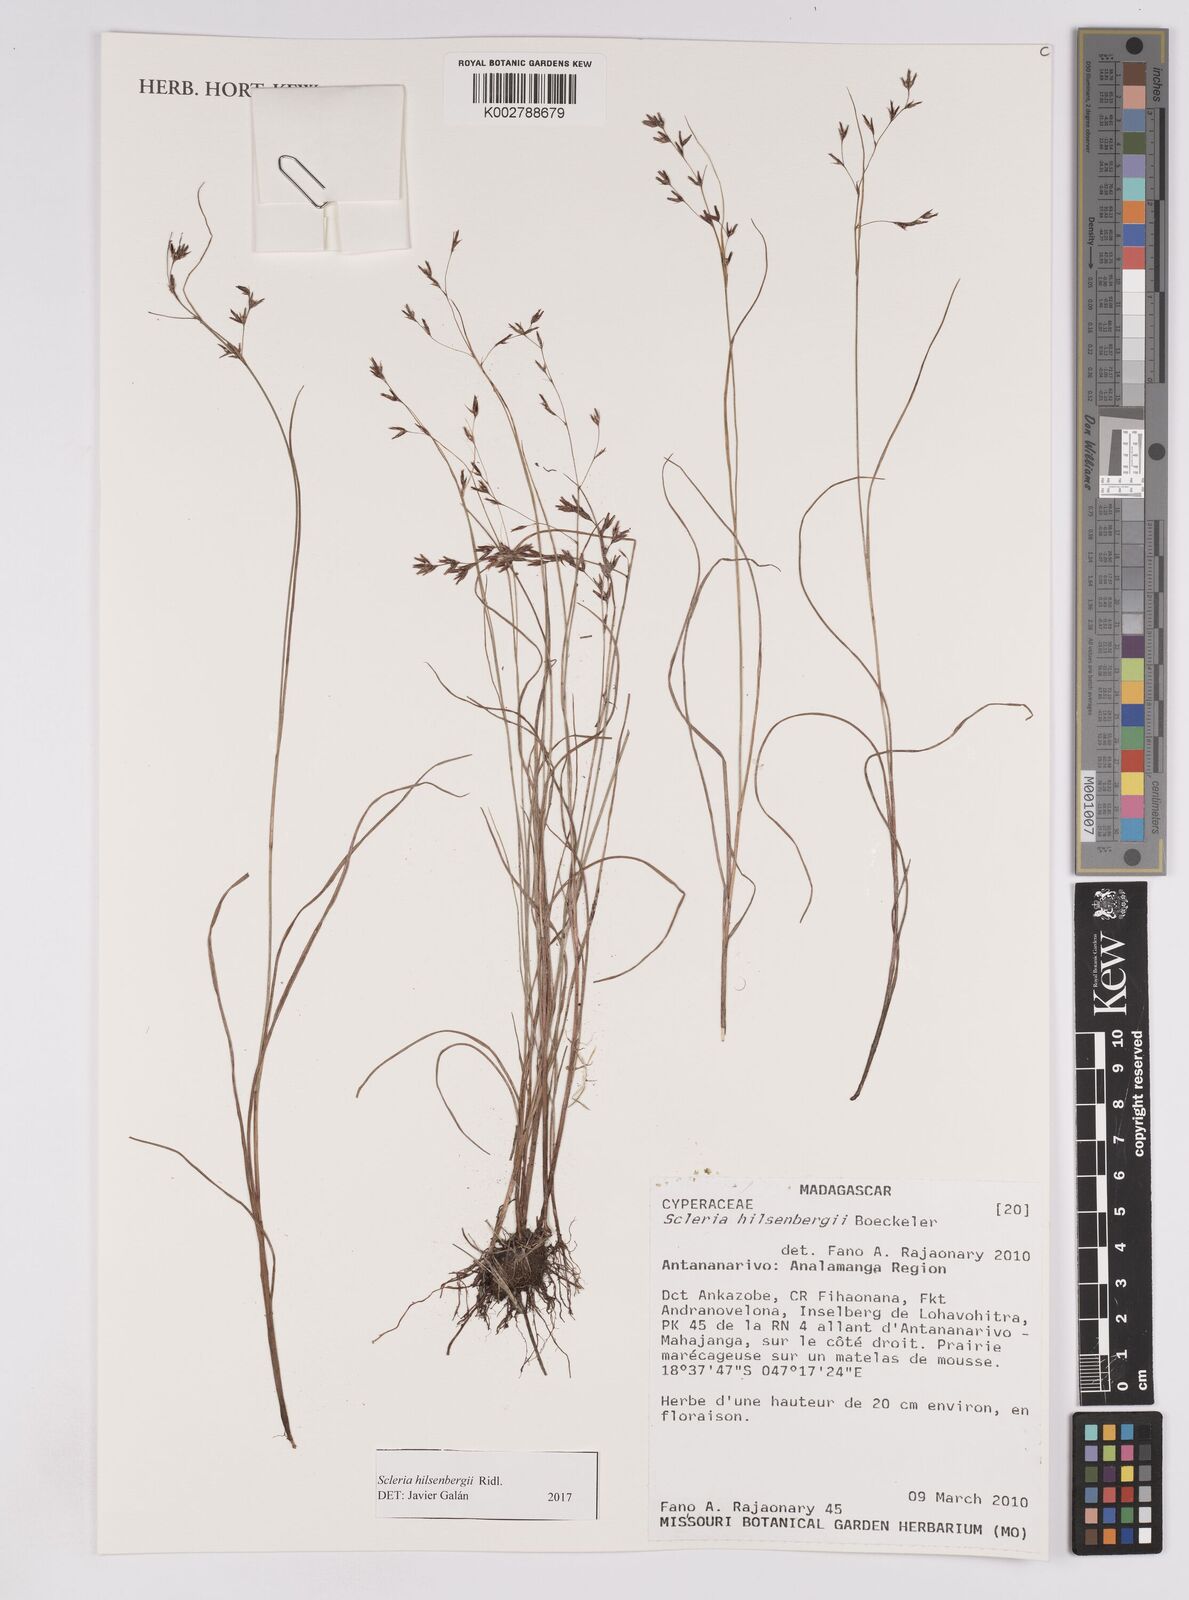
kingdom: Plantae
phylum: Tracheophyta
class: Liliopsida
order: Poales
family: Cyperaceae
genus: Scleria
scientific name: Scleria
